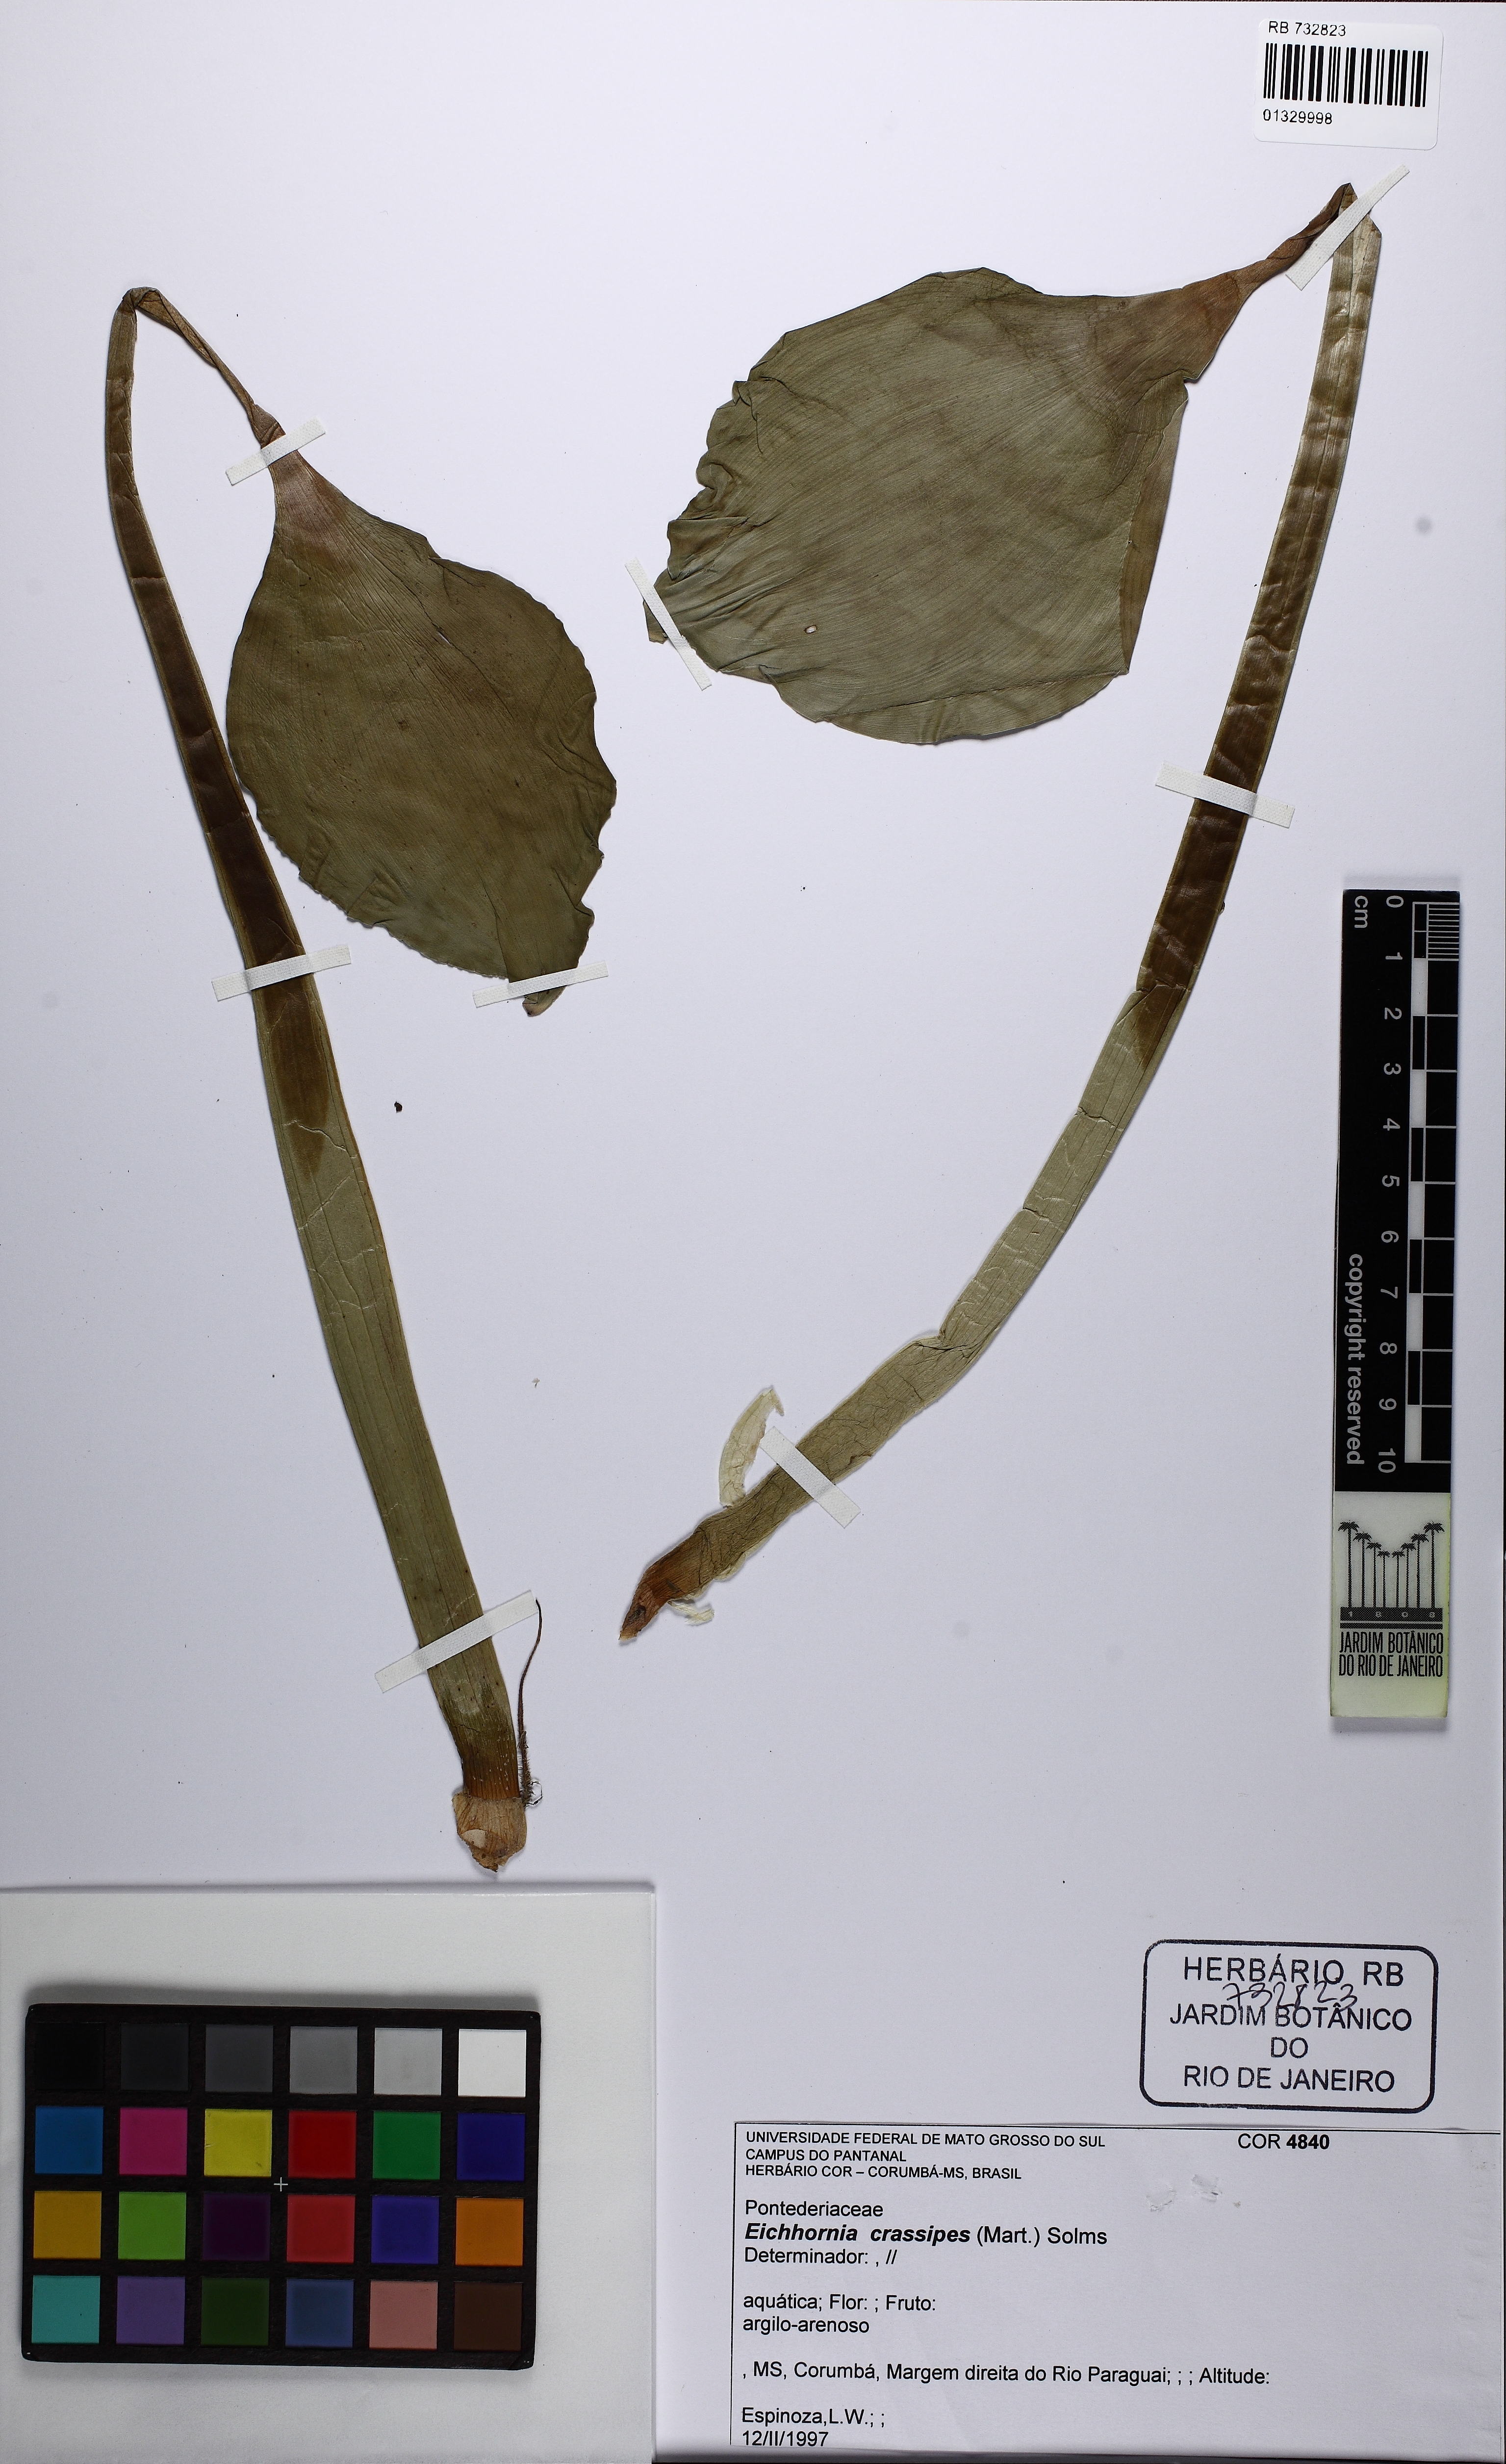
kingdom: Plantae
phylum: Tracheophyta
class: Liliopsida
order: Commelinales
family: Pontederiaceae
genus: Pontederia
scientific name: Pontederia crassipes
